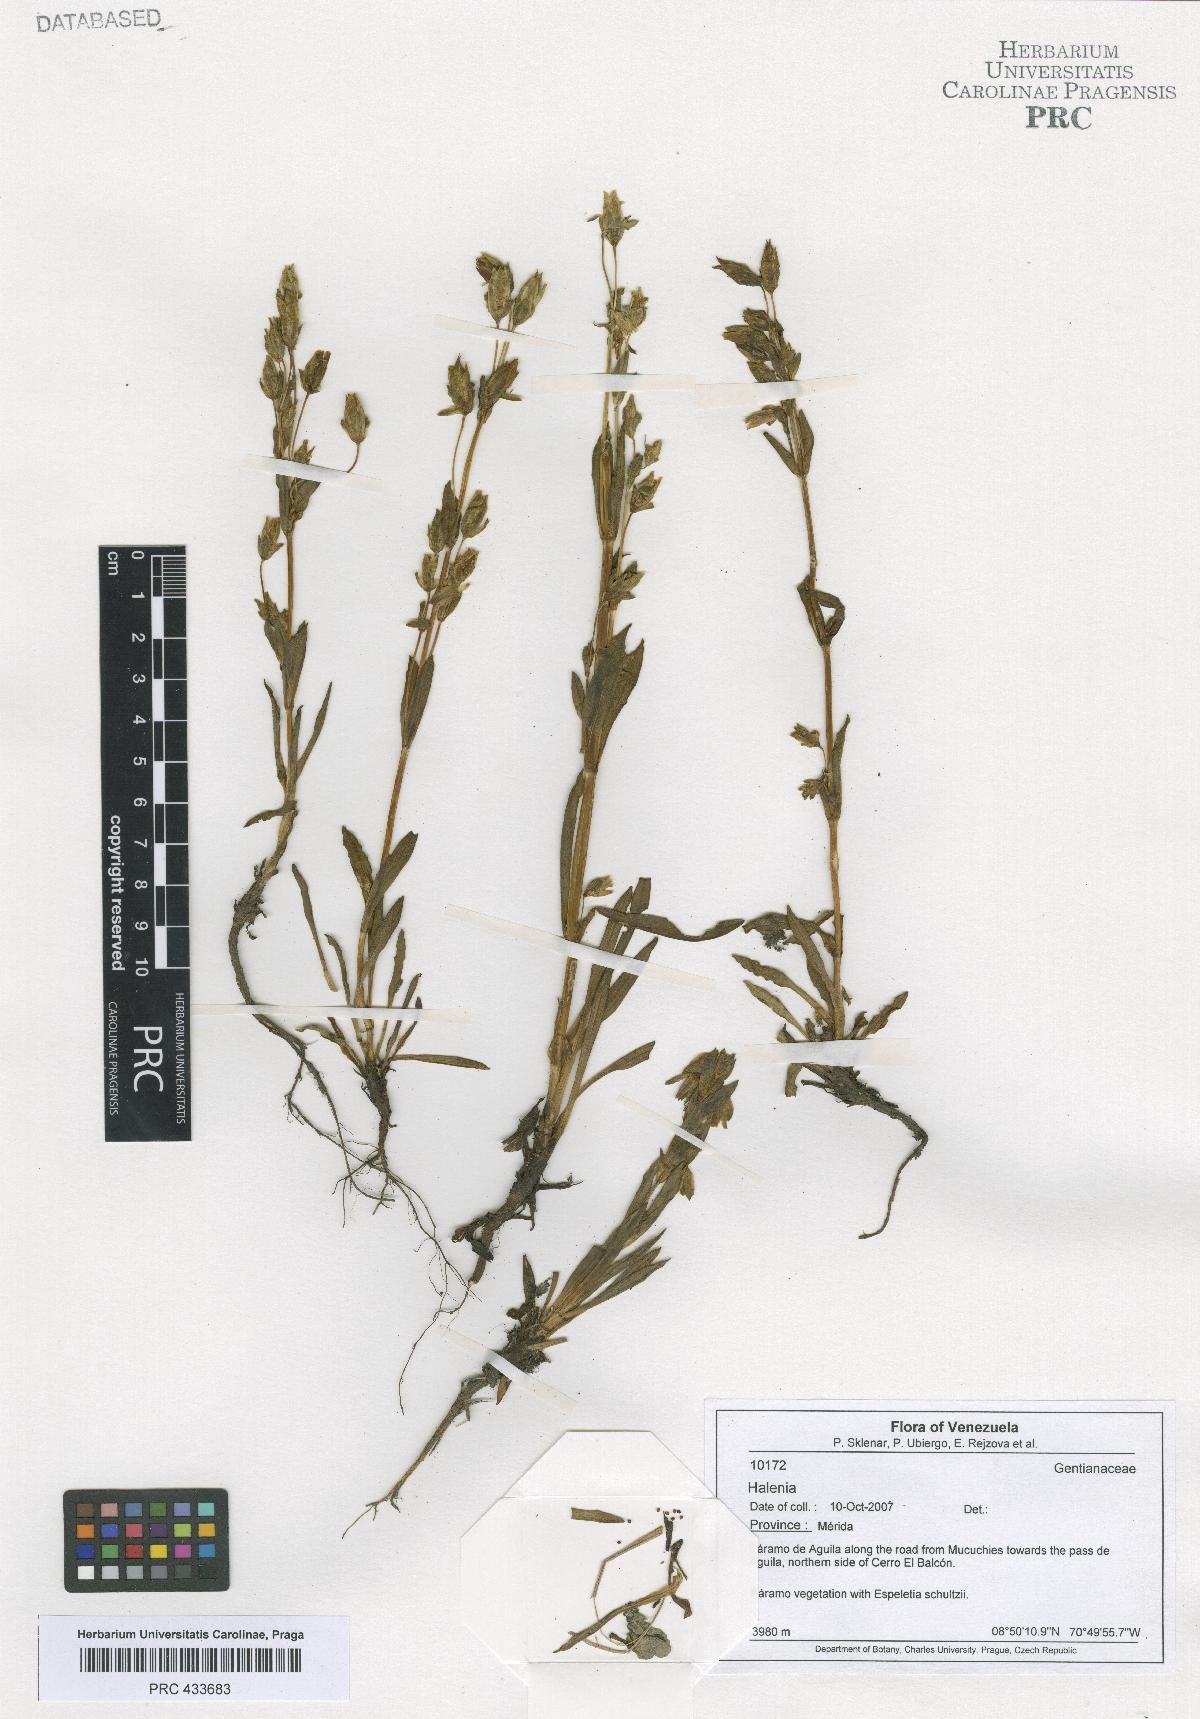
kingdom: Plantae
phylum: Tracheophyta
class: Magnoliopsida
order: Gentianales
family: Gentianaceae
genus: Halenia
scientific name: Halenia
